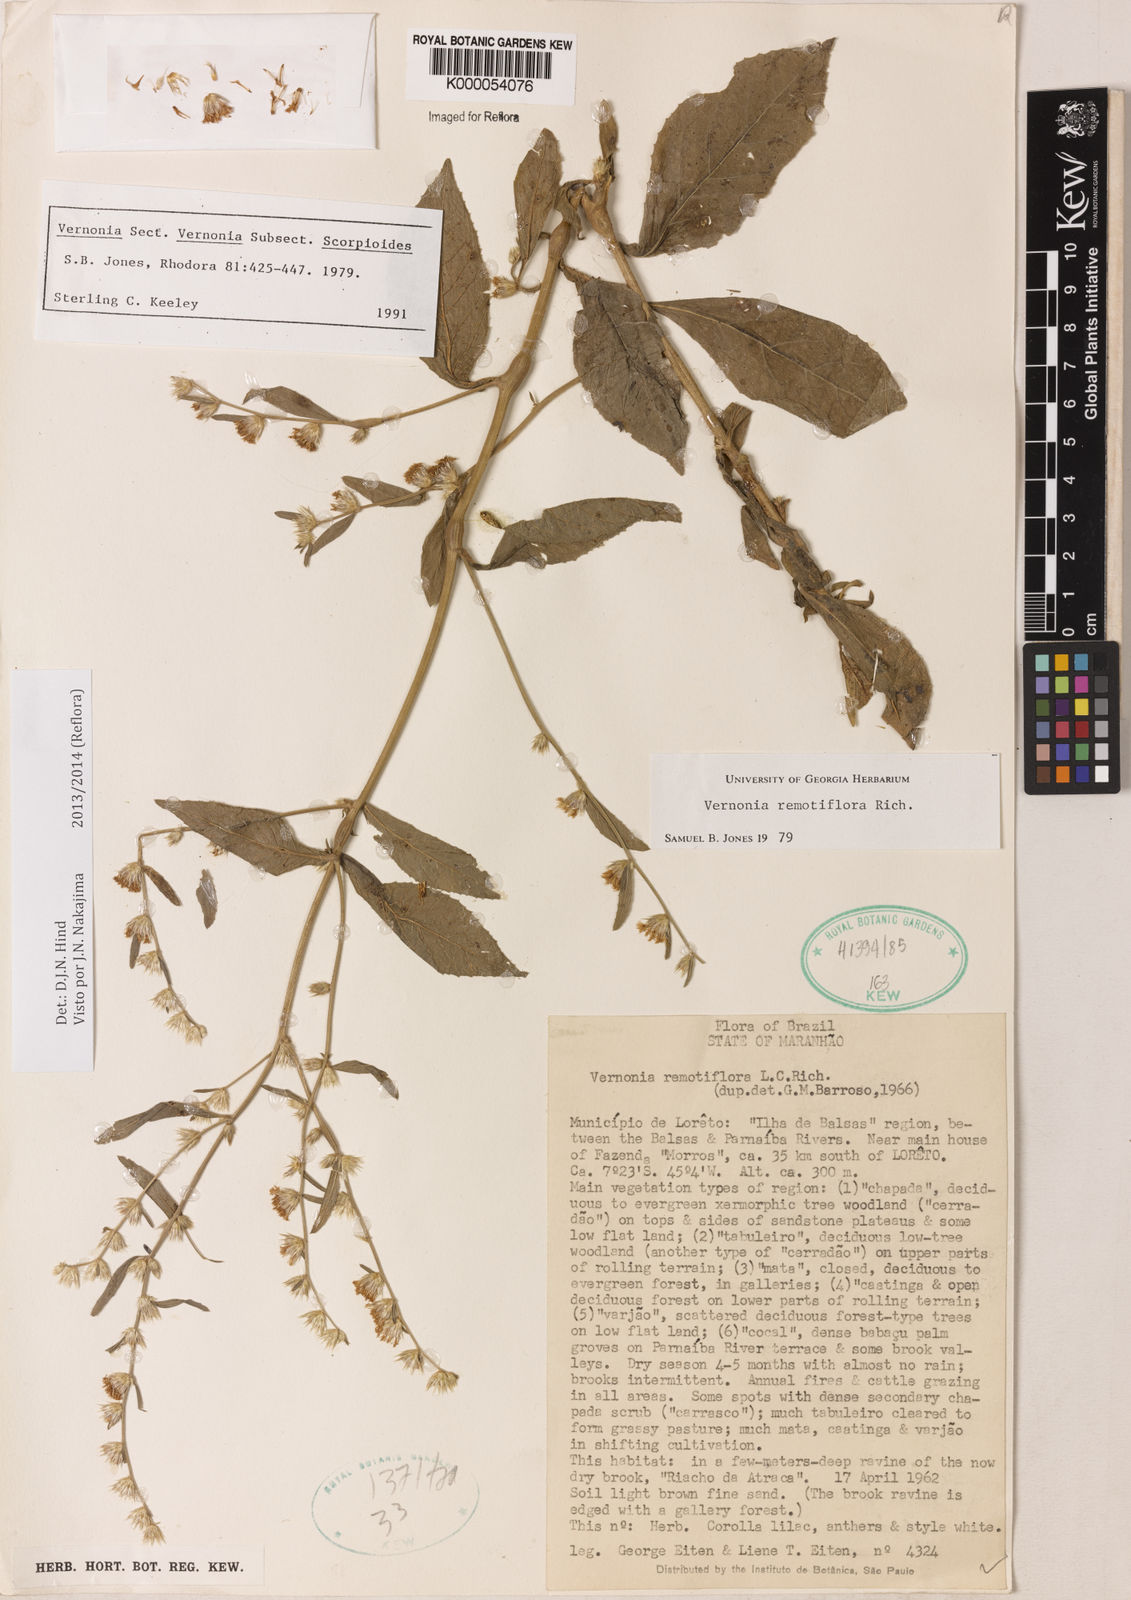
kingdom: Plantae
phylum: Tracheophyta
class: Magnoliopsida
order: Asterales
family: Asteraceae
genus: Lepidaploa
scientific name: Lepidaploa remotiflora
